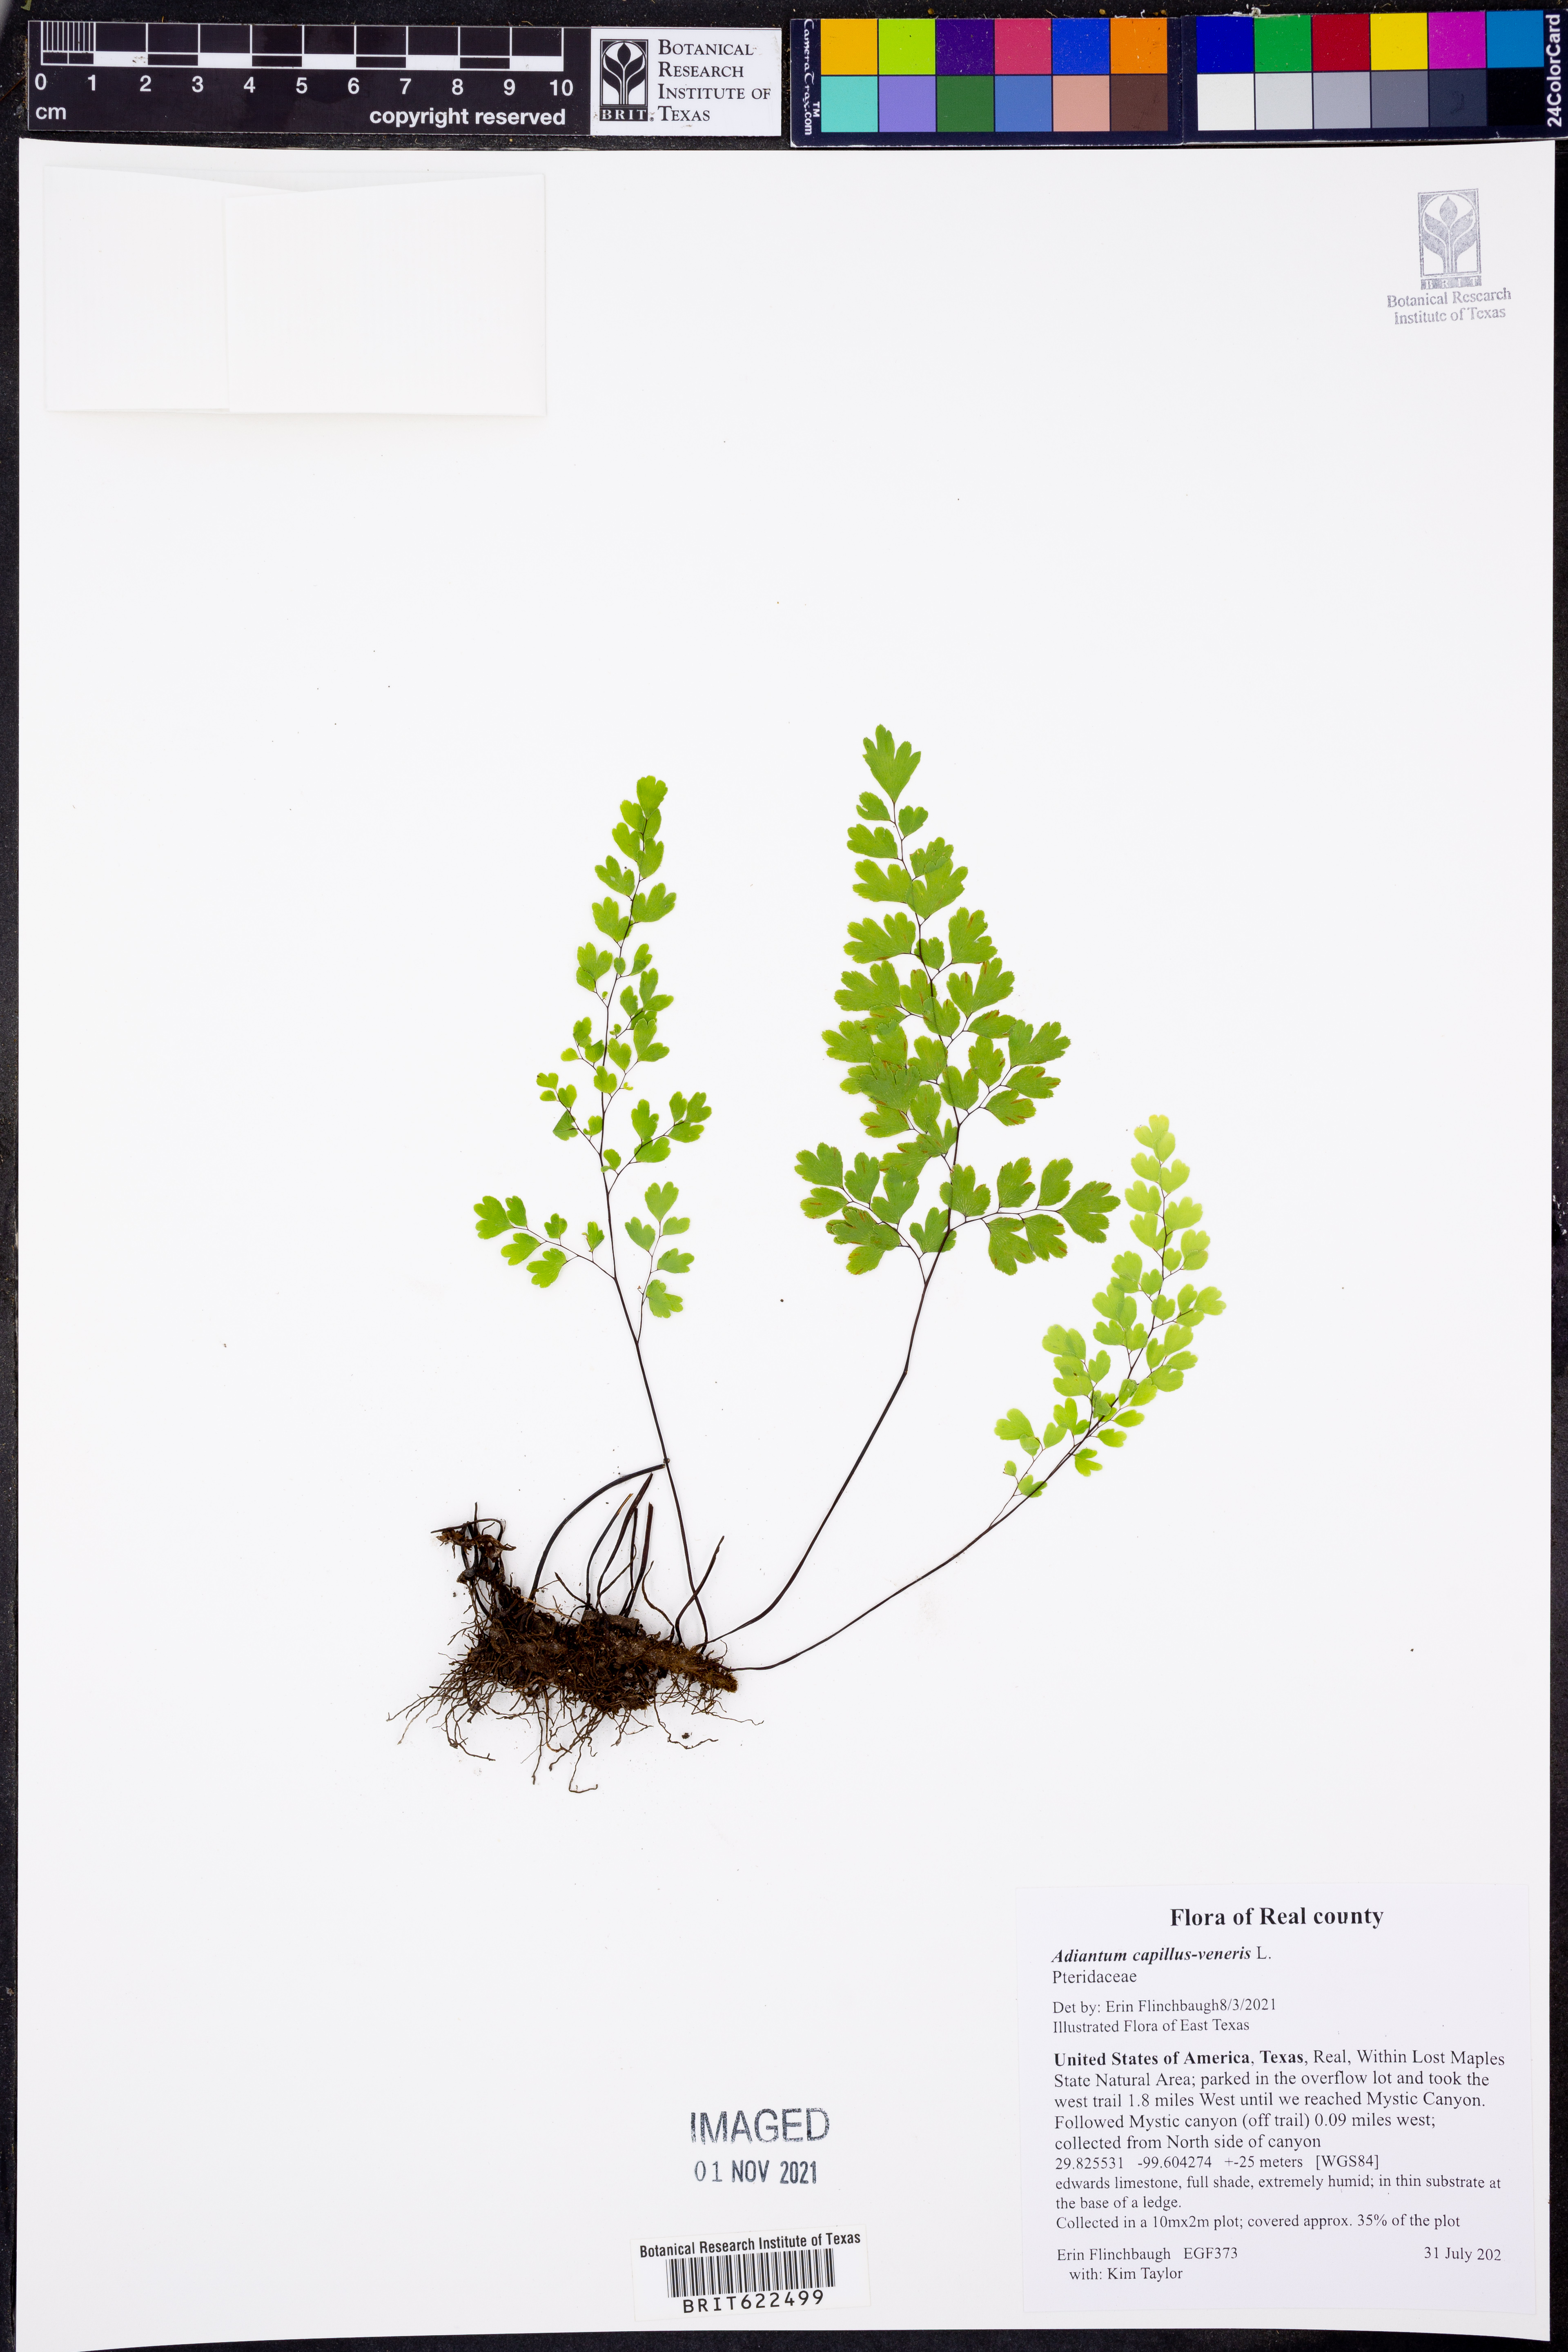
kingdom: Plantae
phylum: Tracheophyta
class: Polypodiopsida
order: Polypodiales
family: Pteridaceae
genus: Adiantum
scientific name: Adiantum capillus-veneris
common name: Maidenhair fern
